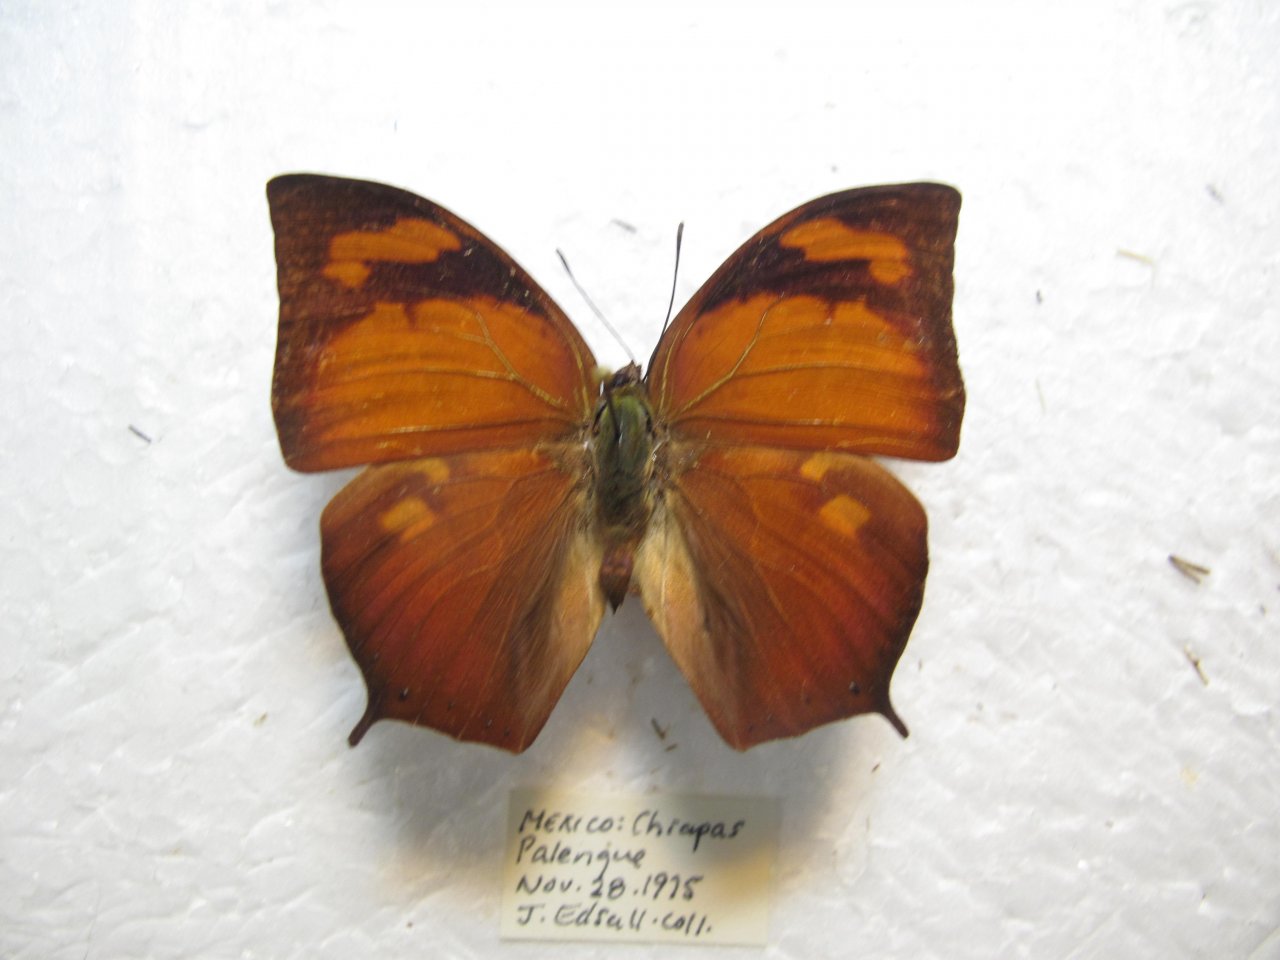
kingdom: Animalia
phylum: Arthropoda
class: Insecta
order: Lepidoptera
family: Nymphalidae
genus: Fountainea
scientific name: Fountainea
